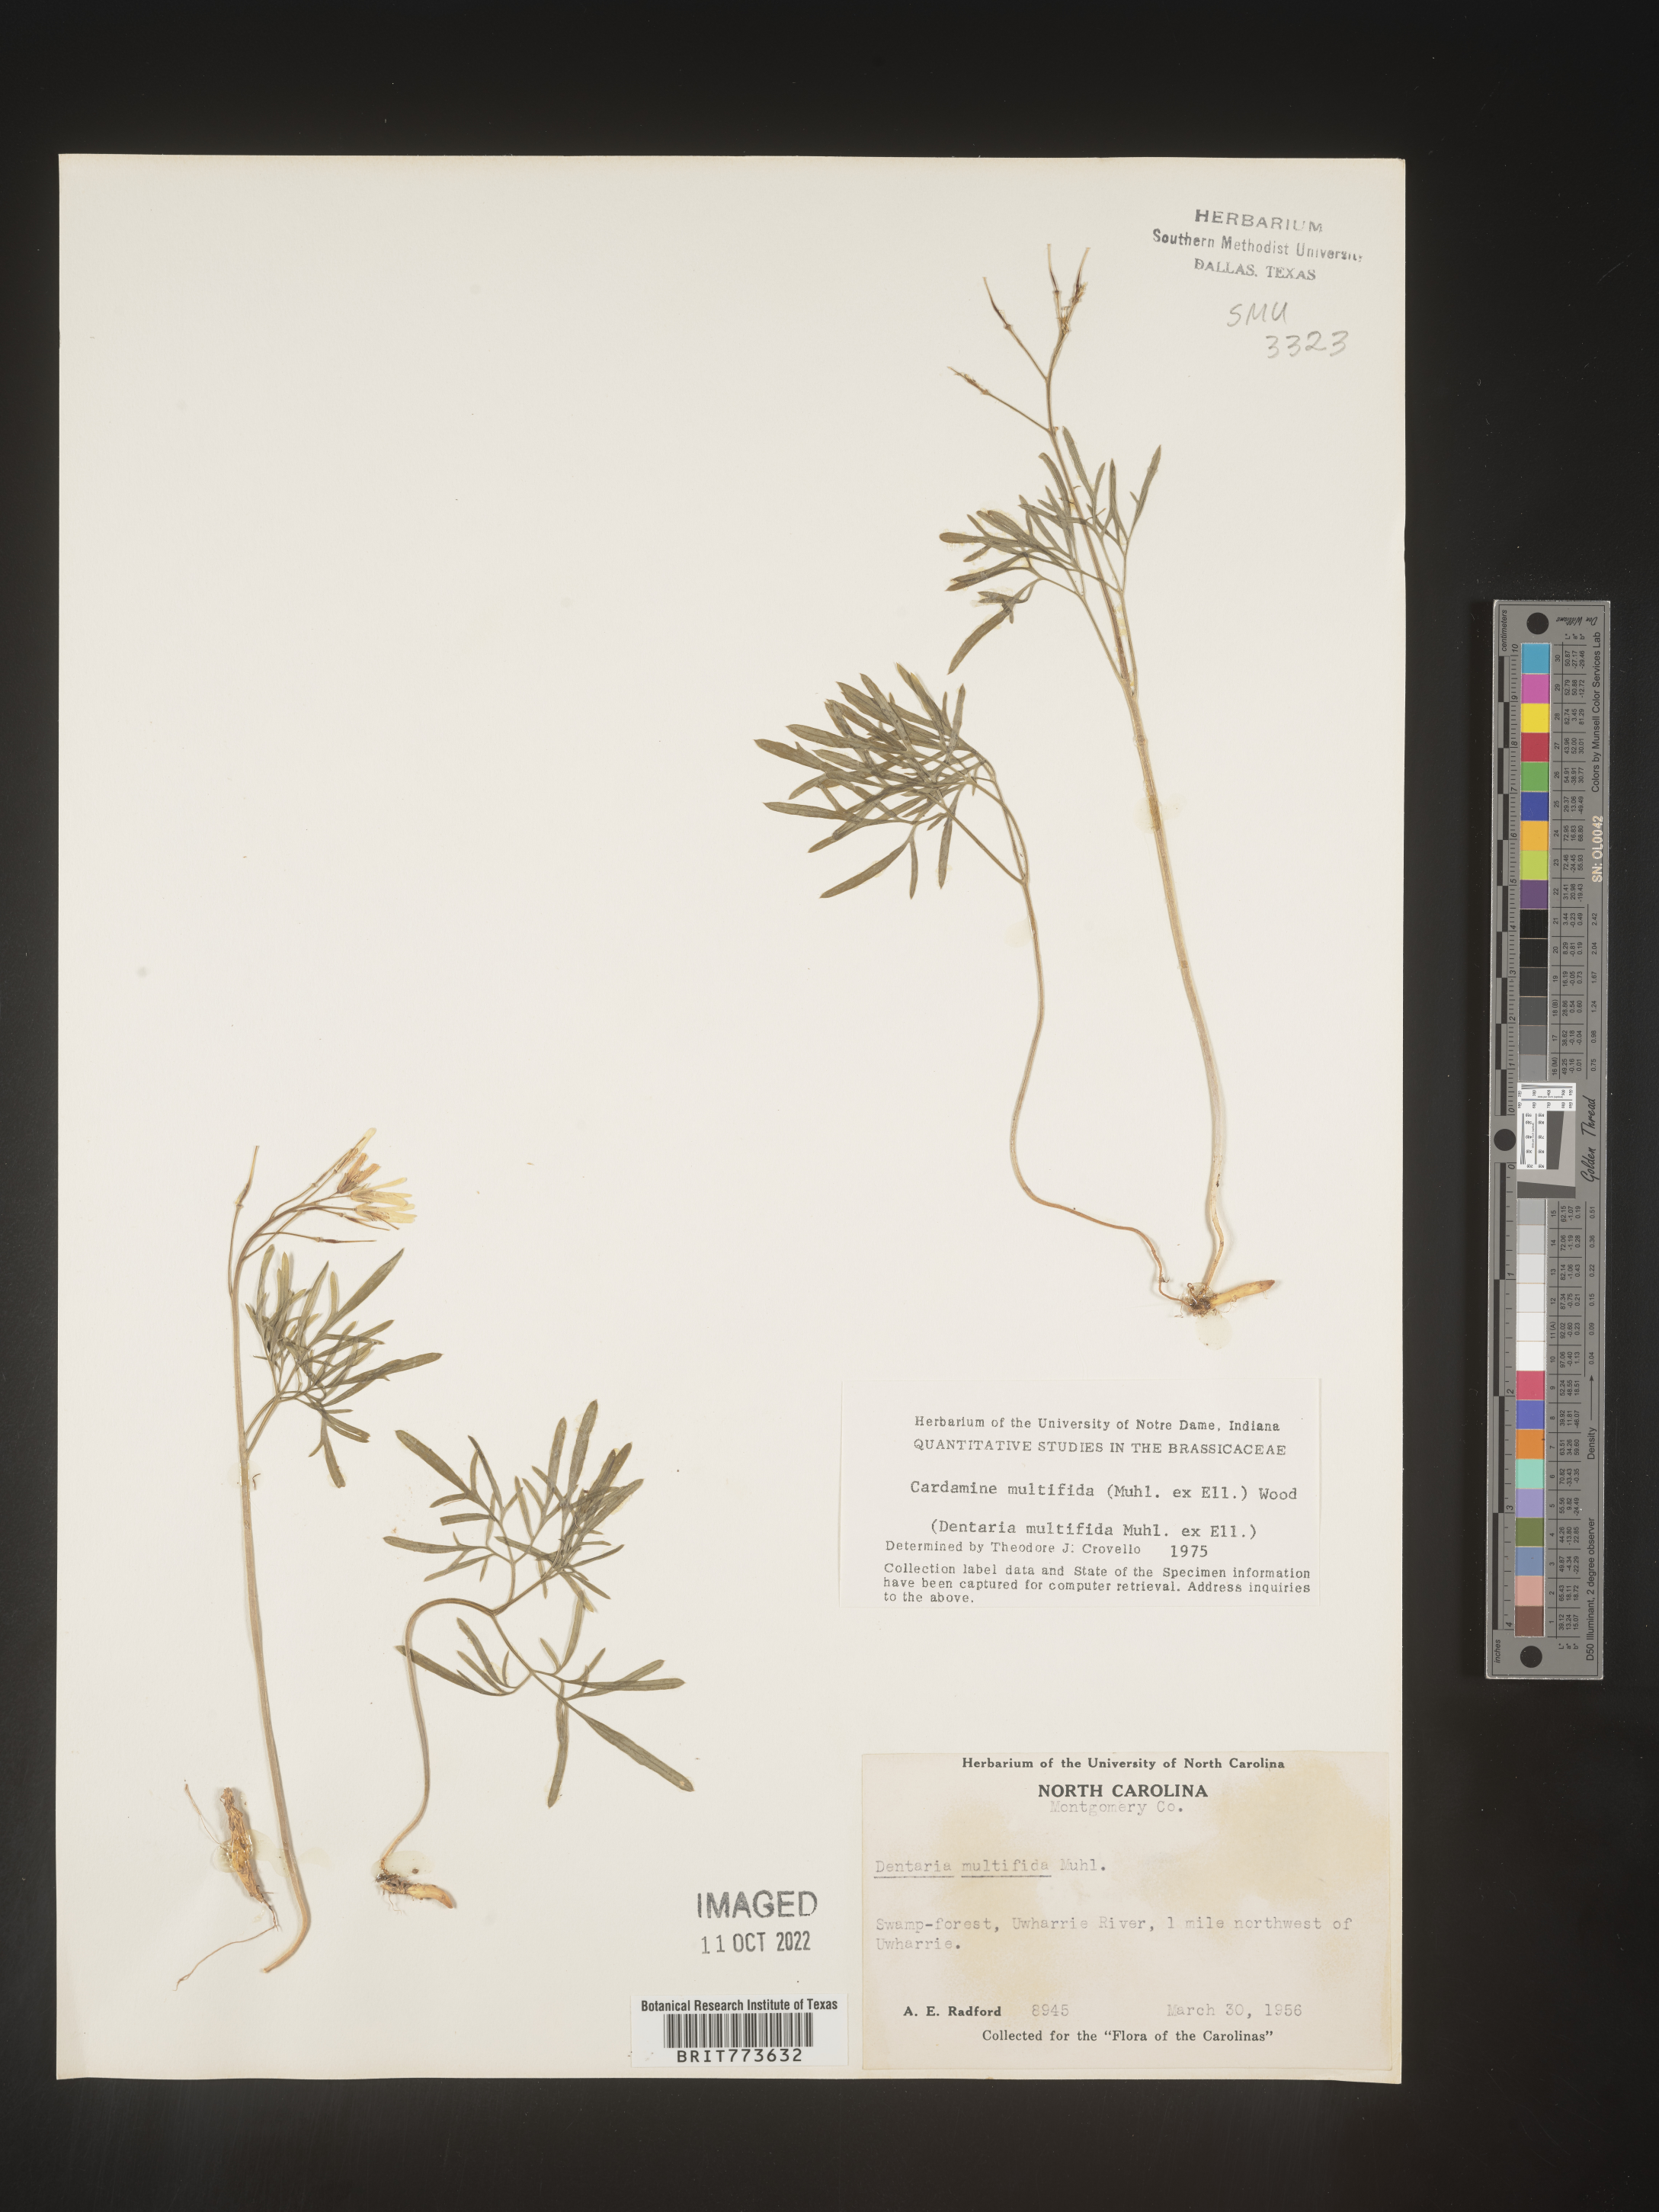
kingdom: Plantae
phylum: Tracheophyta
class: Magnoliopsida
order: Brassicales
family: Brassicaceae
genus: Cardamine
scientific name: Cardamine
